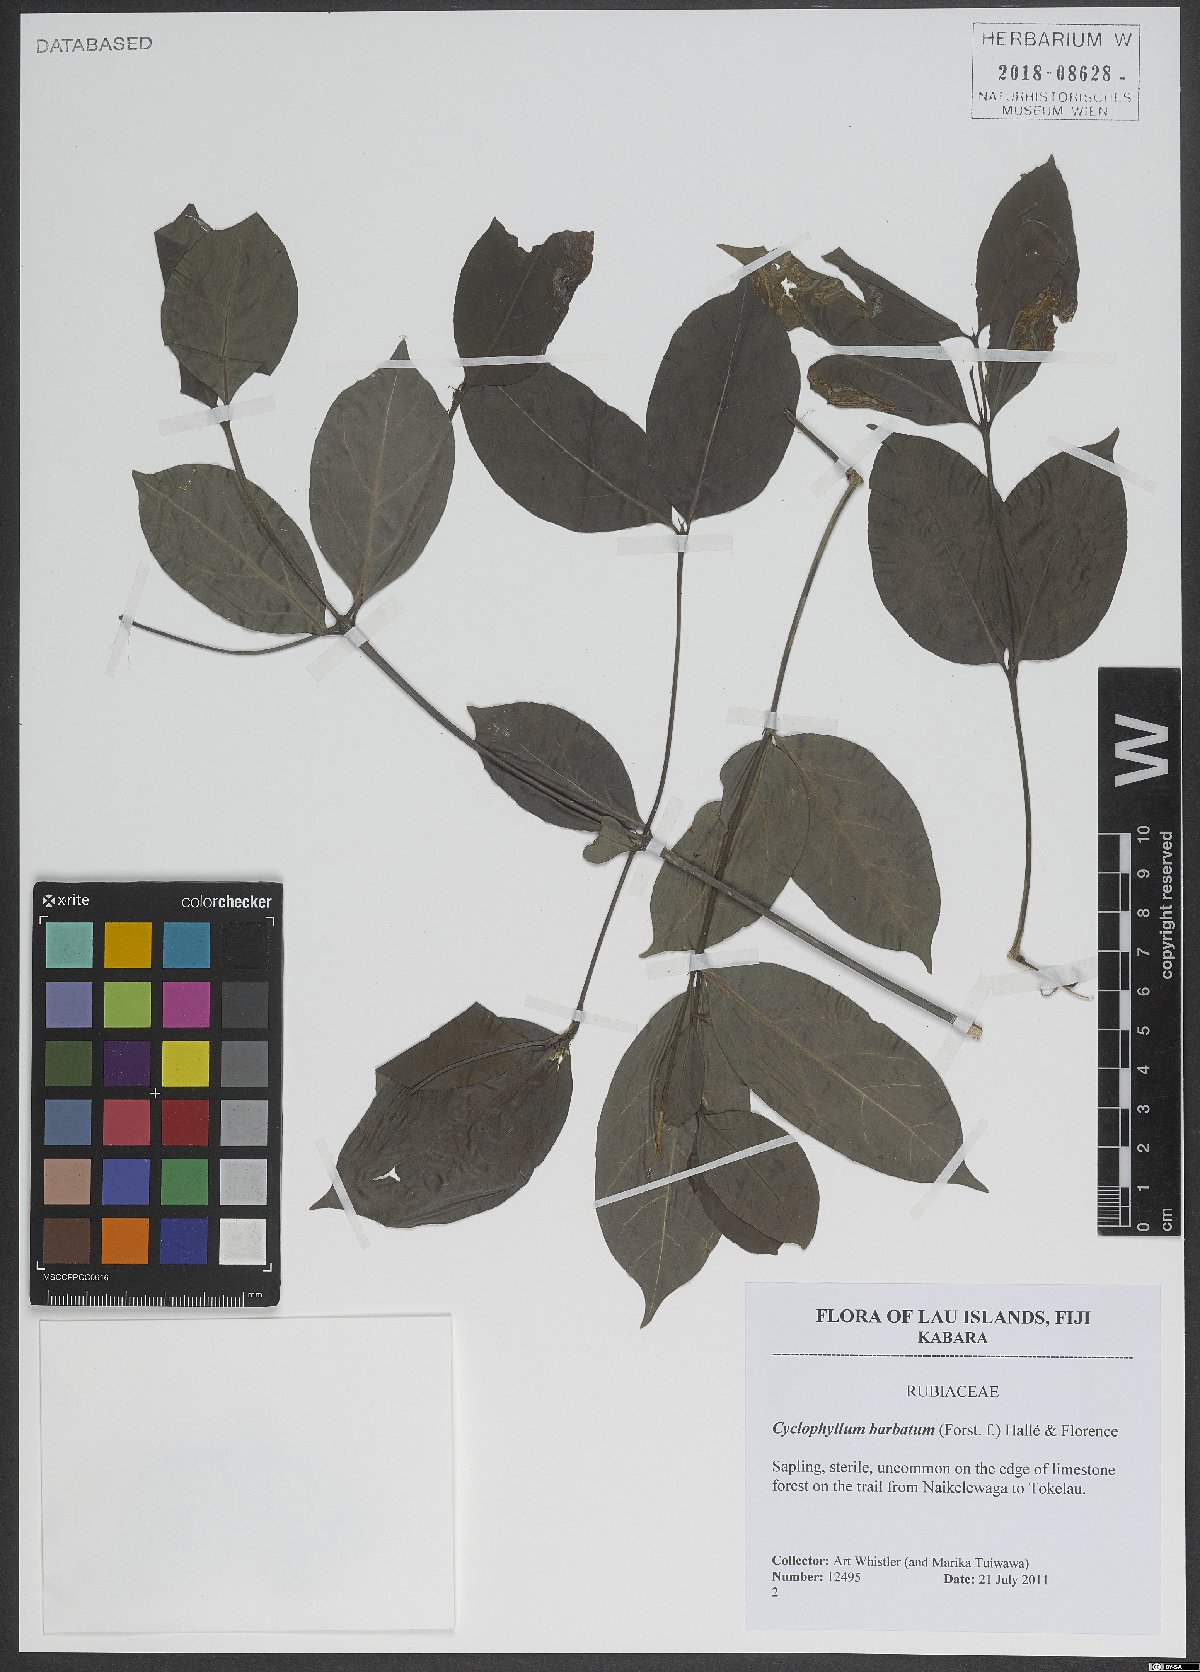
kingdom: Plantae
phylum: Tracheophyta
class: Magnoliopsida
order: Gentianales
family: Rubiaceae
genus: Cyclophyllum
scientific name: Cyclophyllum barbatum
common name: Cyclophyllum
